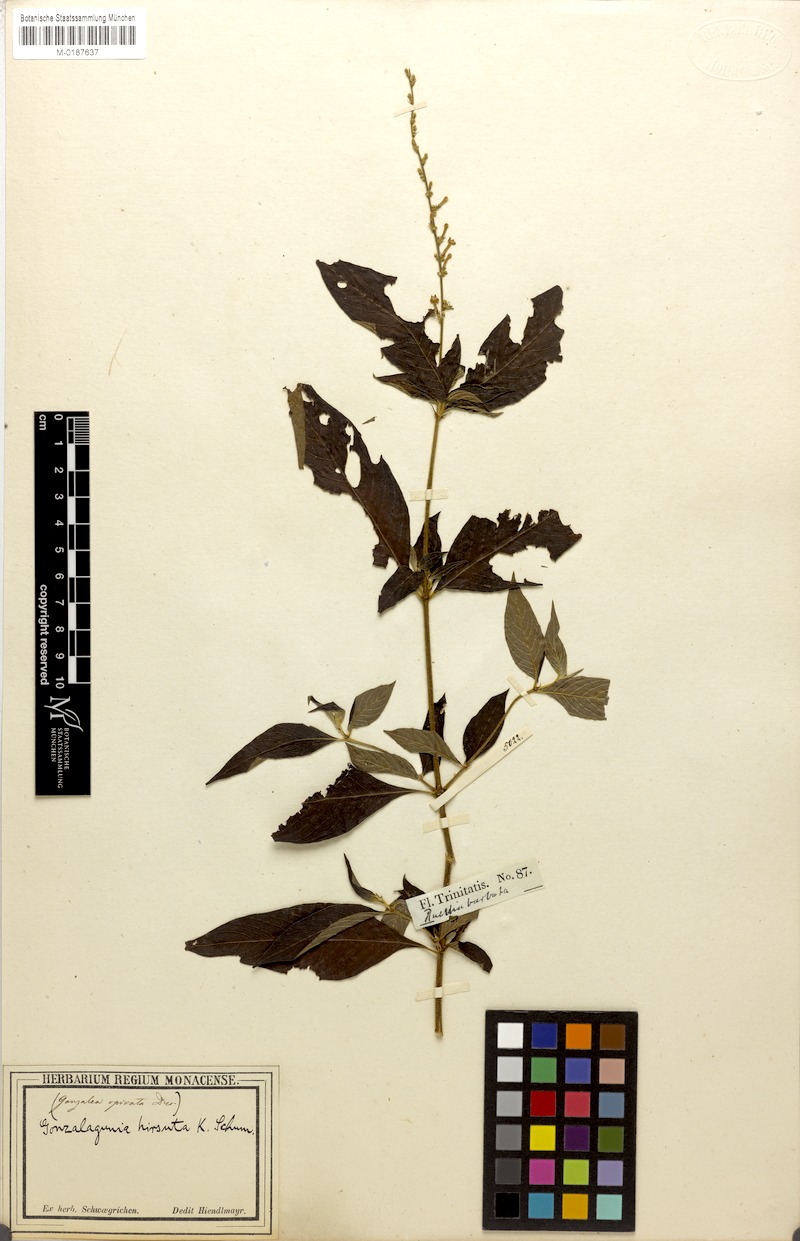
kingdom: Plantae
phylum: Tracheophyta
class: Magnoliopsida
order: Gentianales
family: Rubiaceae
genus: Gonzalagunia
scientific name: Gonzalagunia hirsuta
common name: Mata de mariposa
